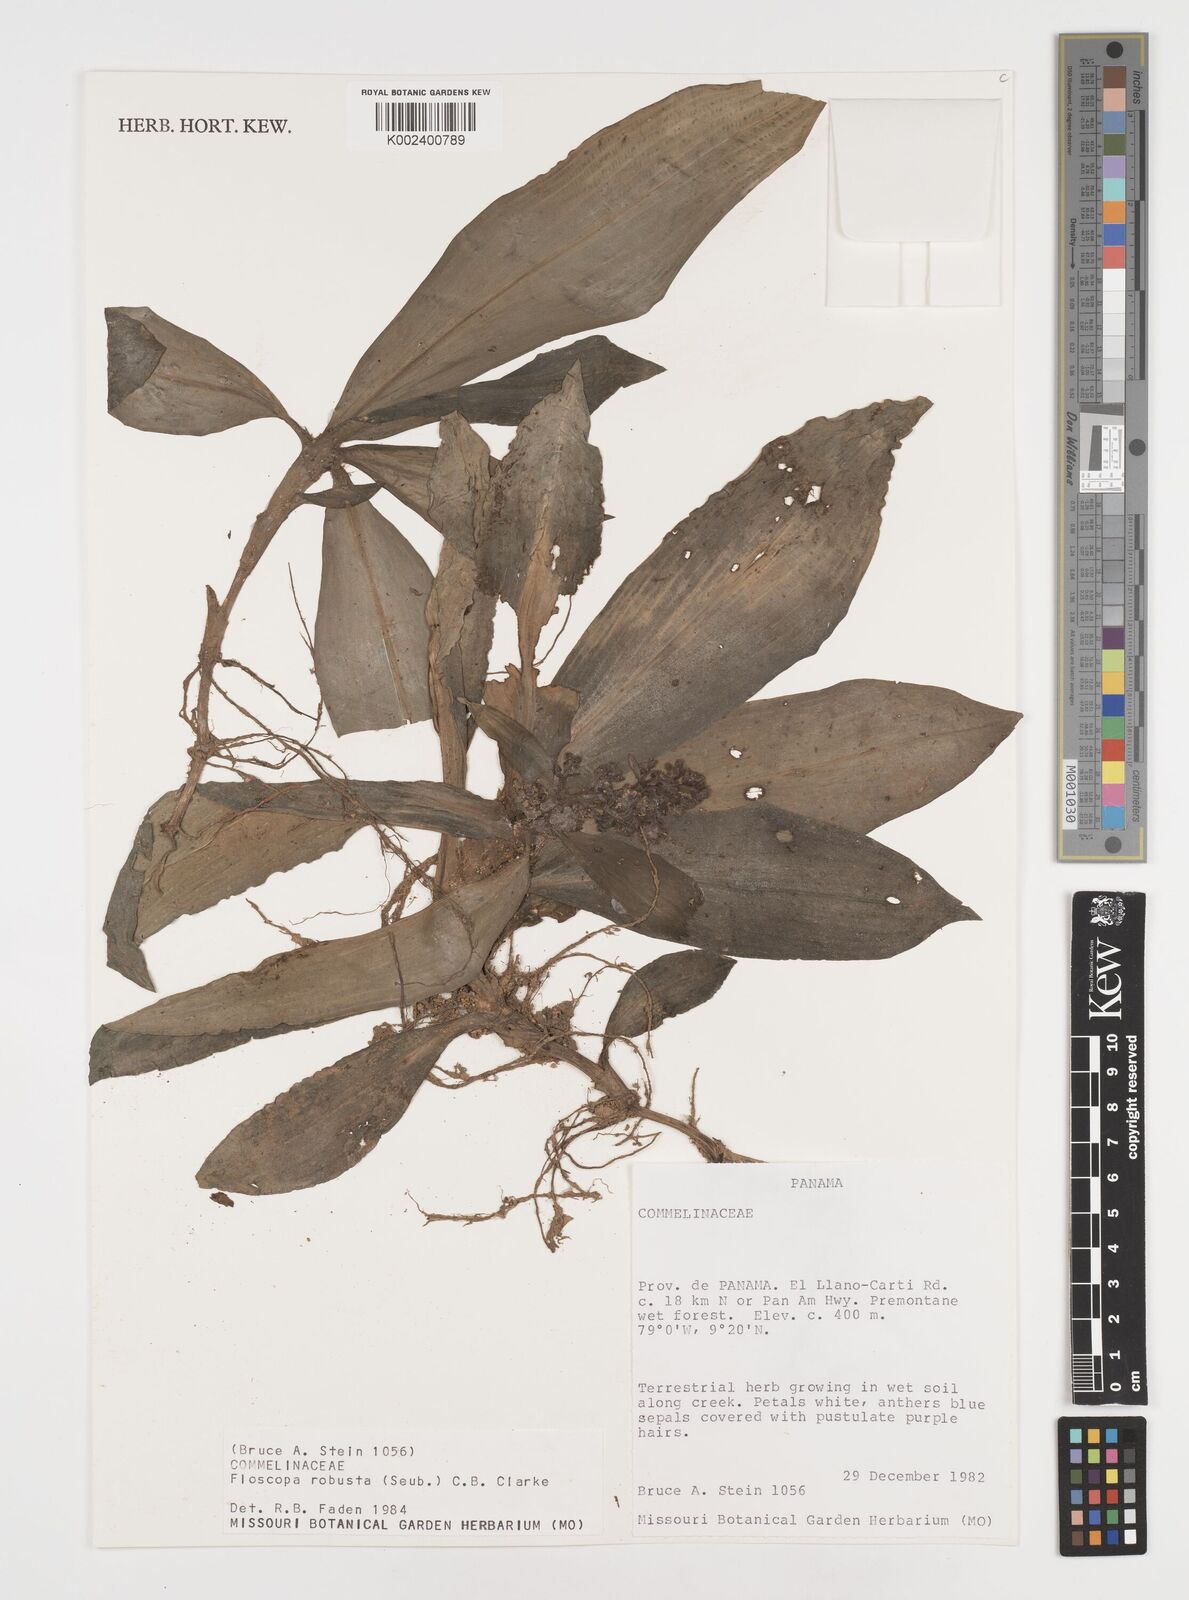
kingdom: Plantae
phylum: Tracheophyta
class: Liliopsida
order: Commelinales
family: Commelinaceae
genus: Floscopa
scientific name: Floscopa robusta
